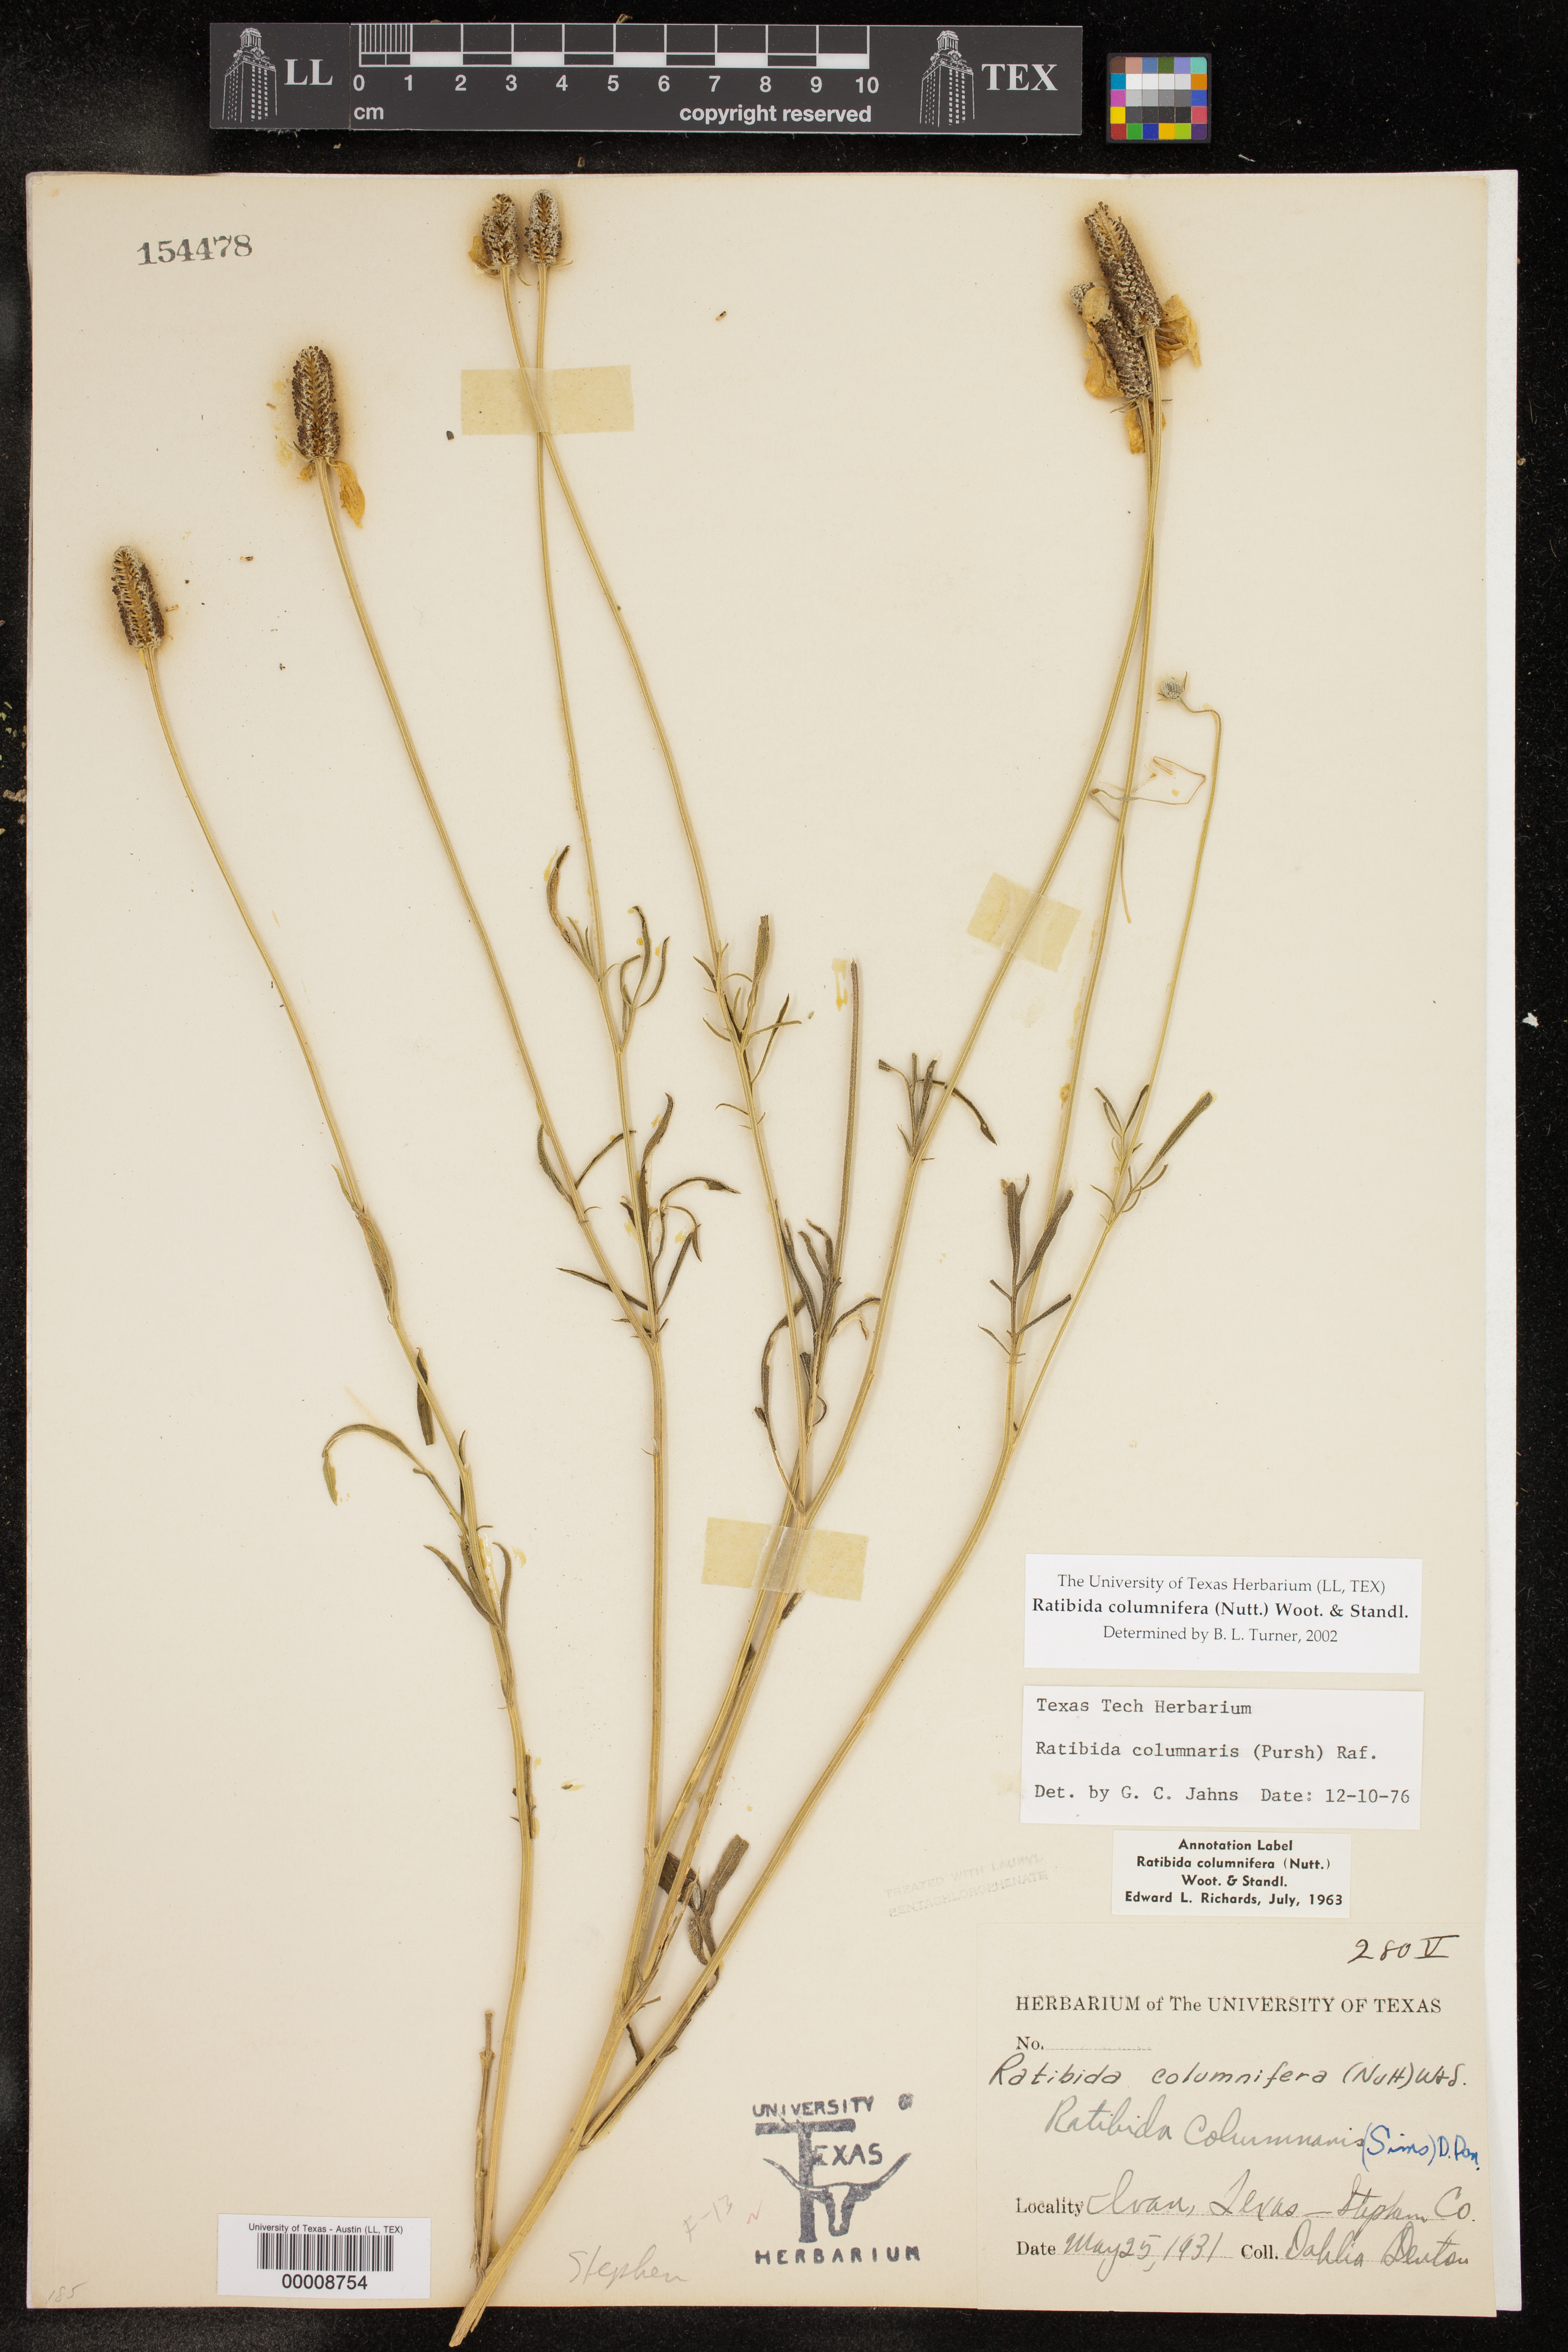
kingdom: Plantae
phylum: Tracheophyta
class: Magnoliopsida
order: Asterales
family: Asteraceae
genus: Ratibida
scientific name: Ratibida columnifera
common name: Prairie coneflower
